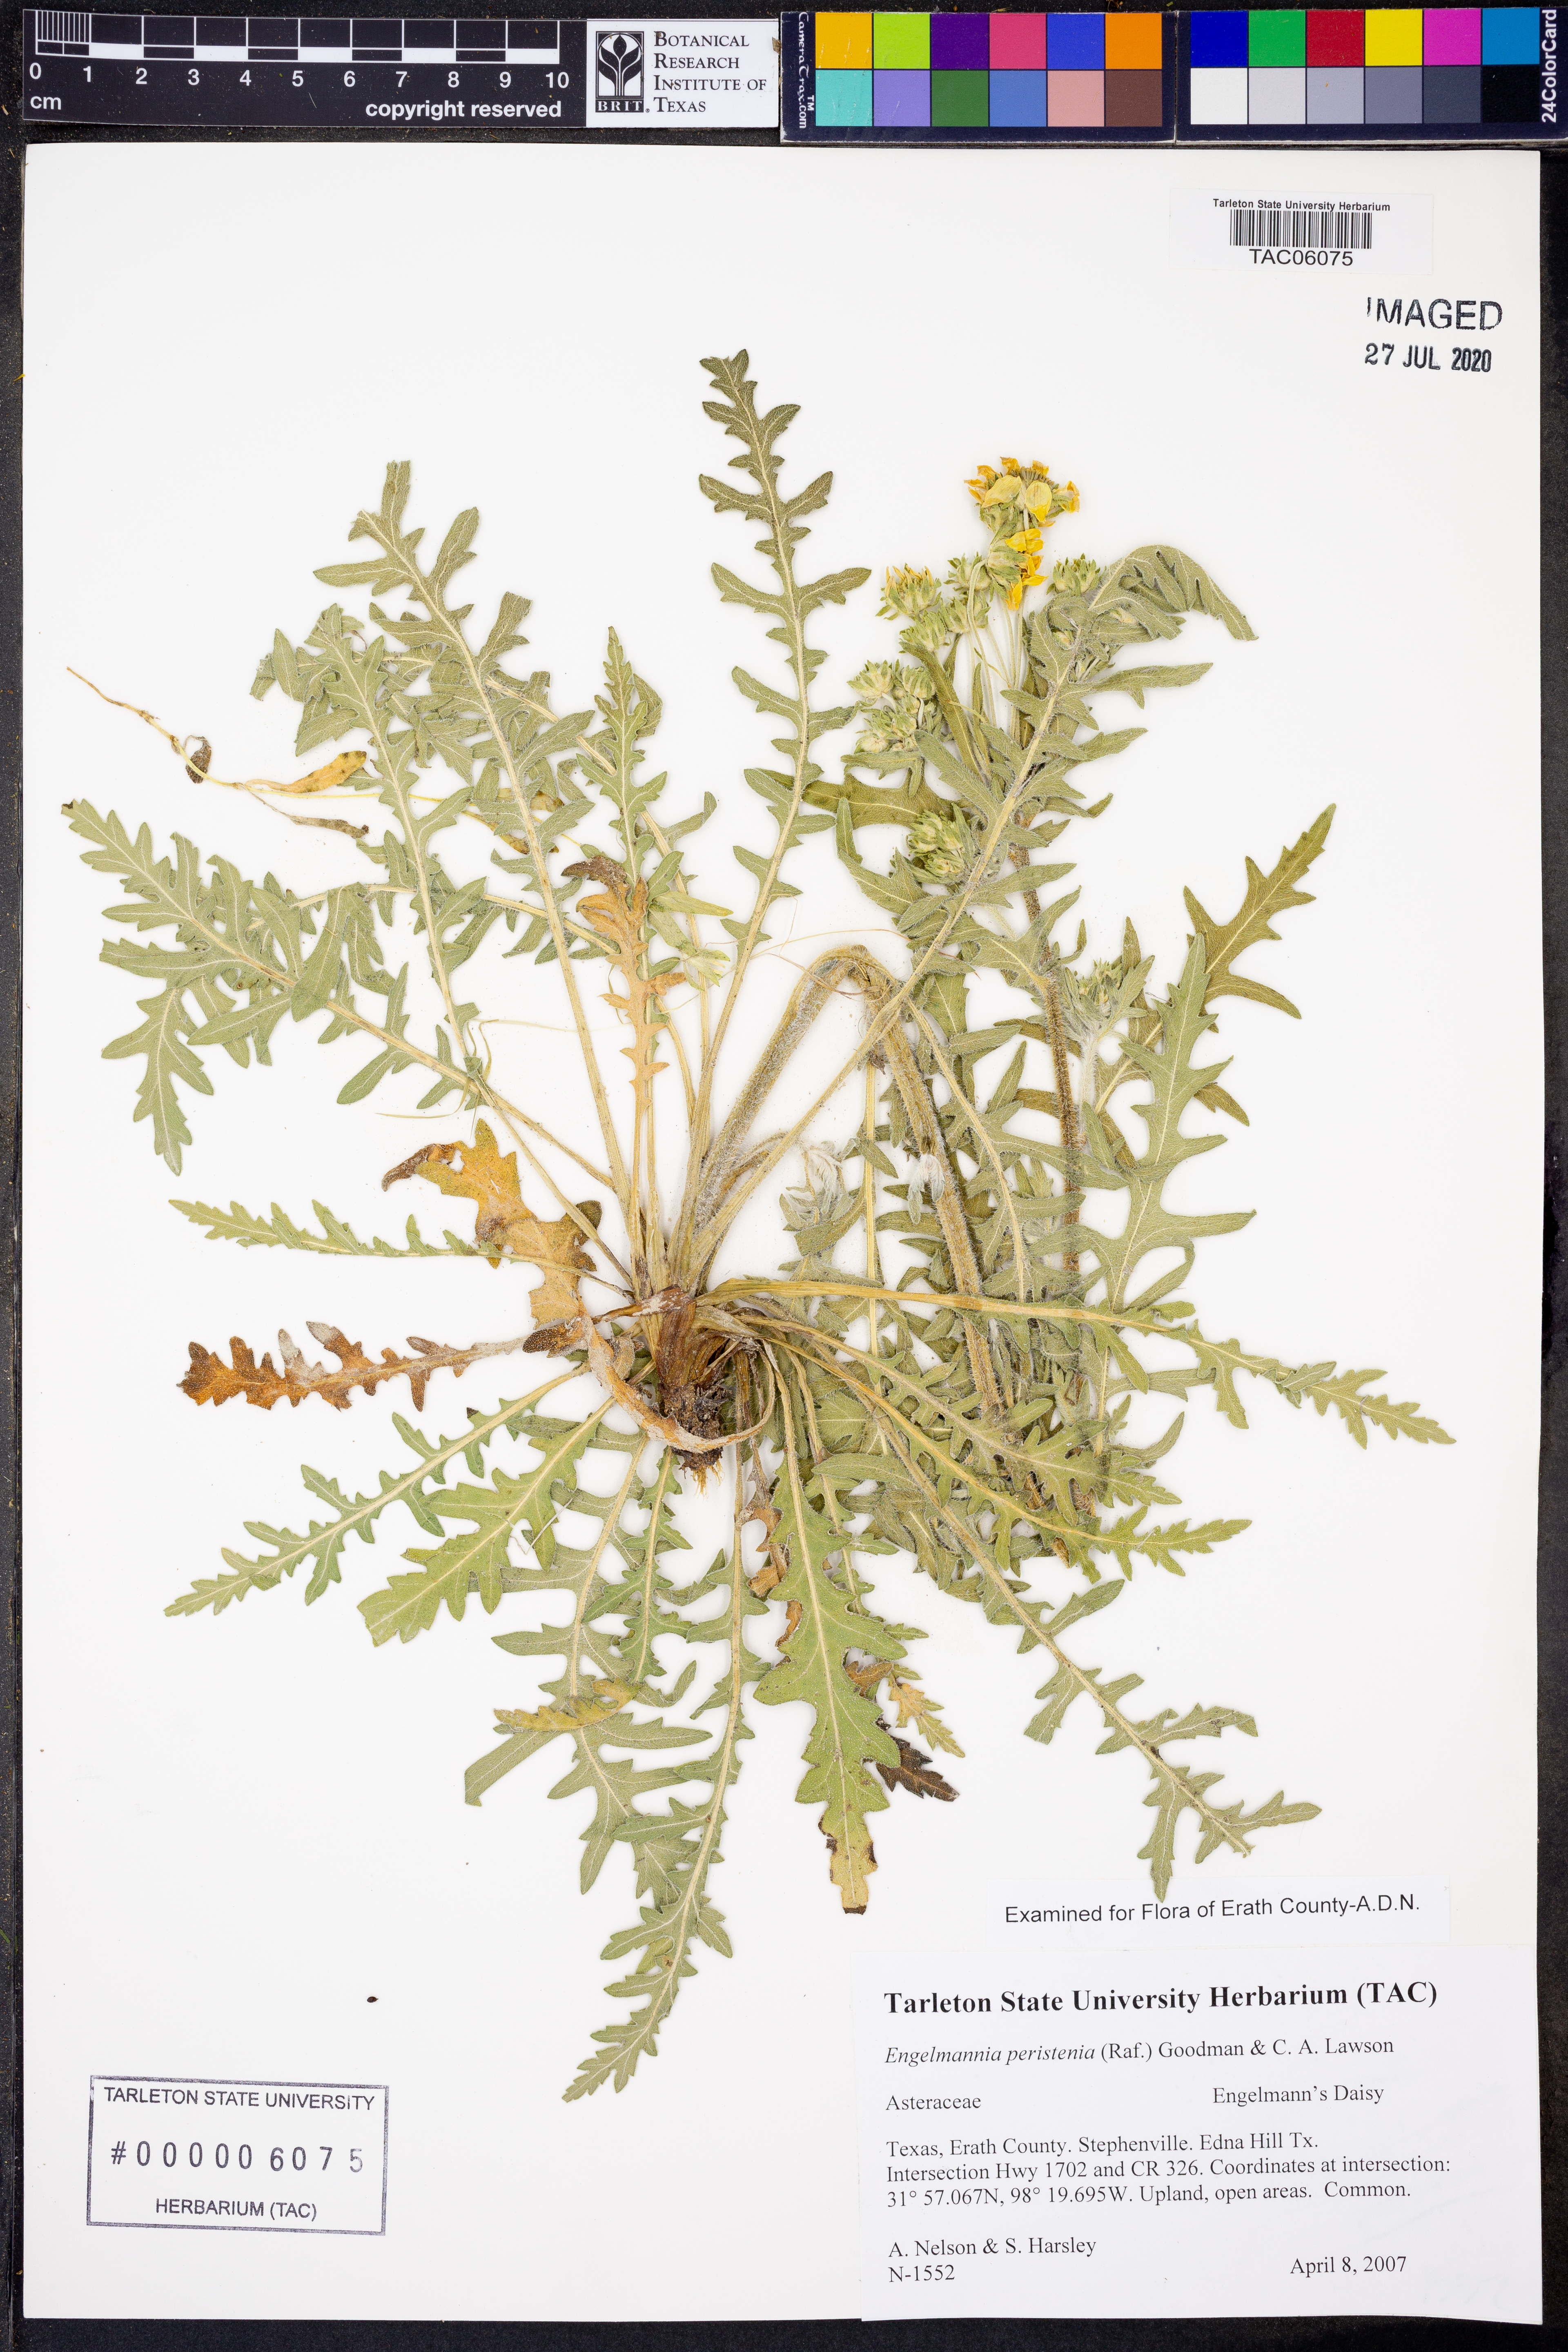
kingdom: Plantae
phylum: Tracheophyta
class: Magnoliopsida
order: Asterales
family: Asteraceae
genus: Engelmannia
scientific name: Engelmannia peristenia
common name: Engelmann's daisy
